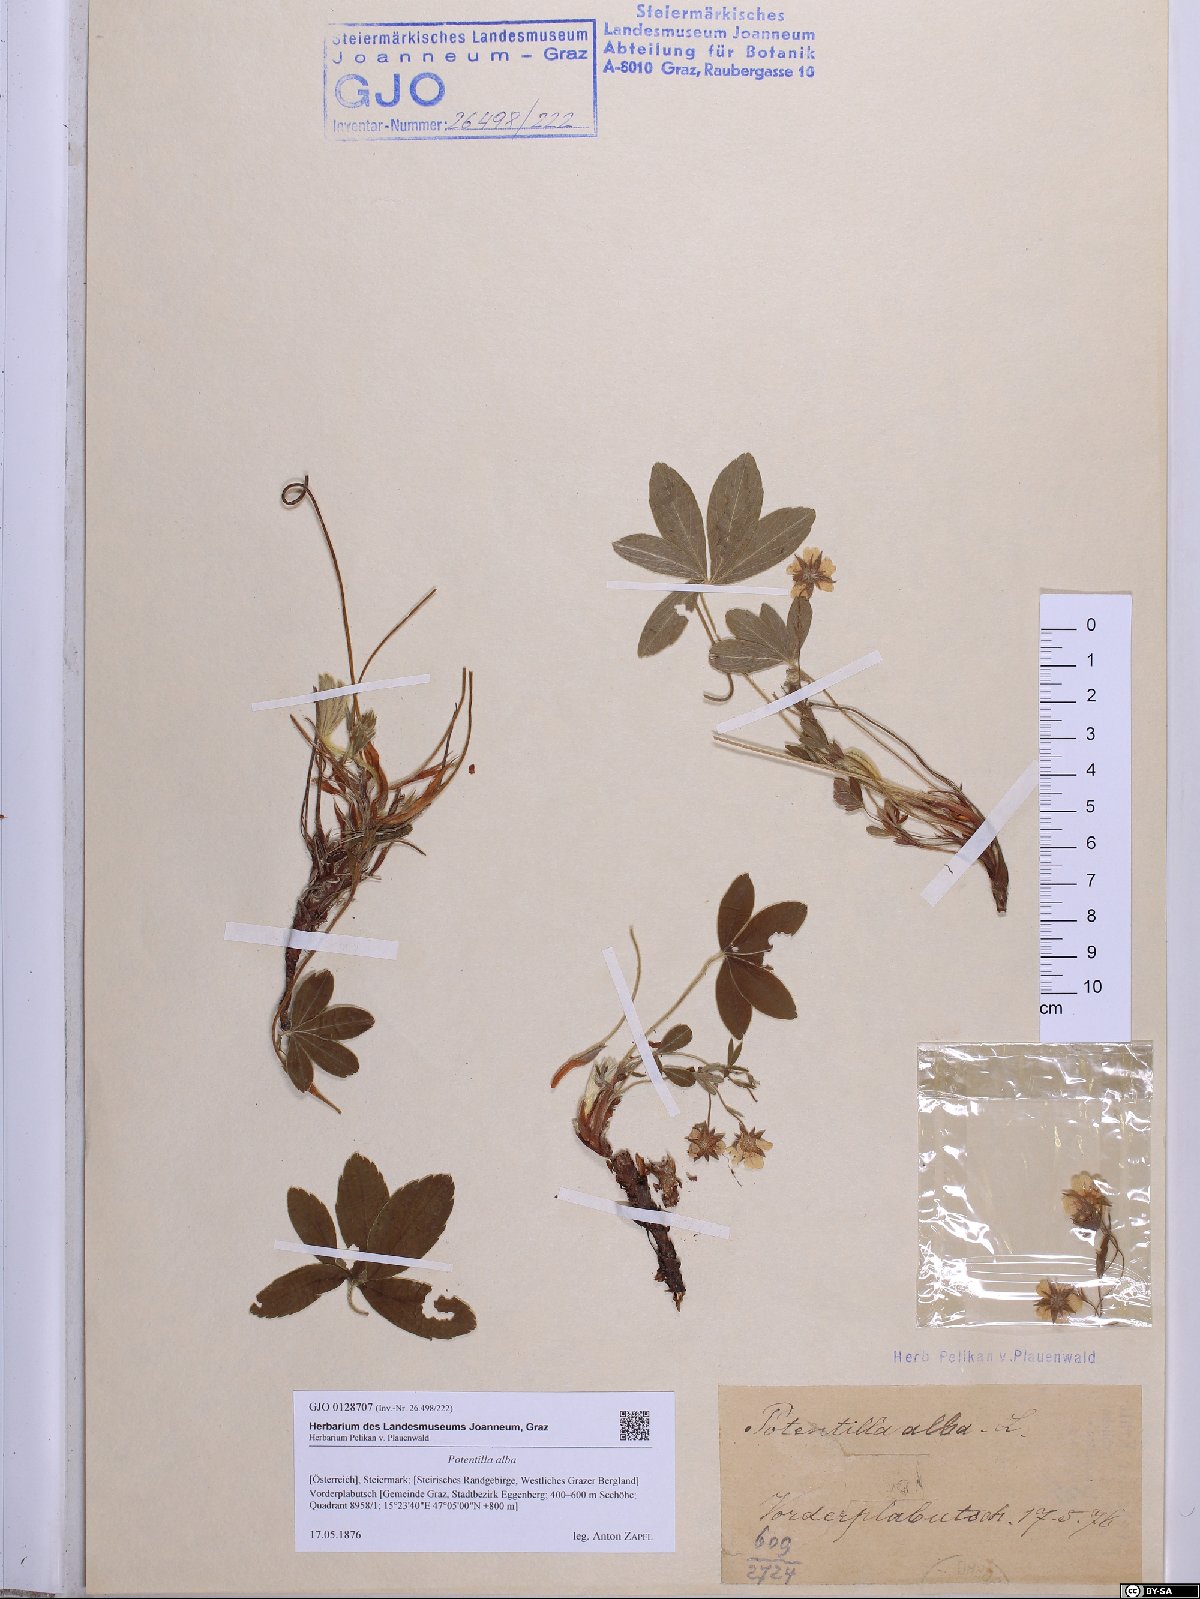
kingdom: Plantae
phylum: Tracheophyta
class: Magnoliopsida
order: Rosales
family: Rosaceae
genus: Potentilla
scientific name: Potentilla alba
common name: White cinquefoil
